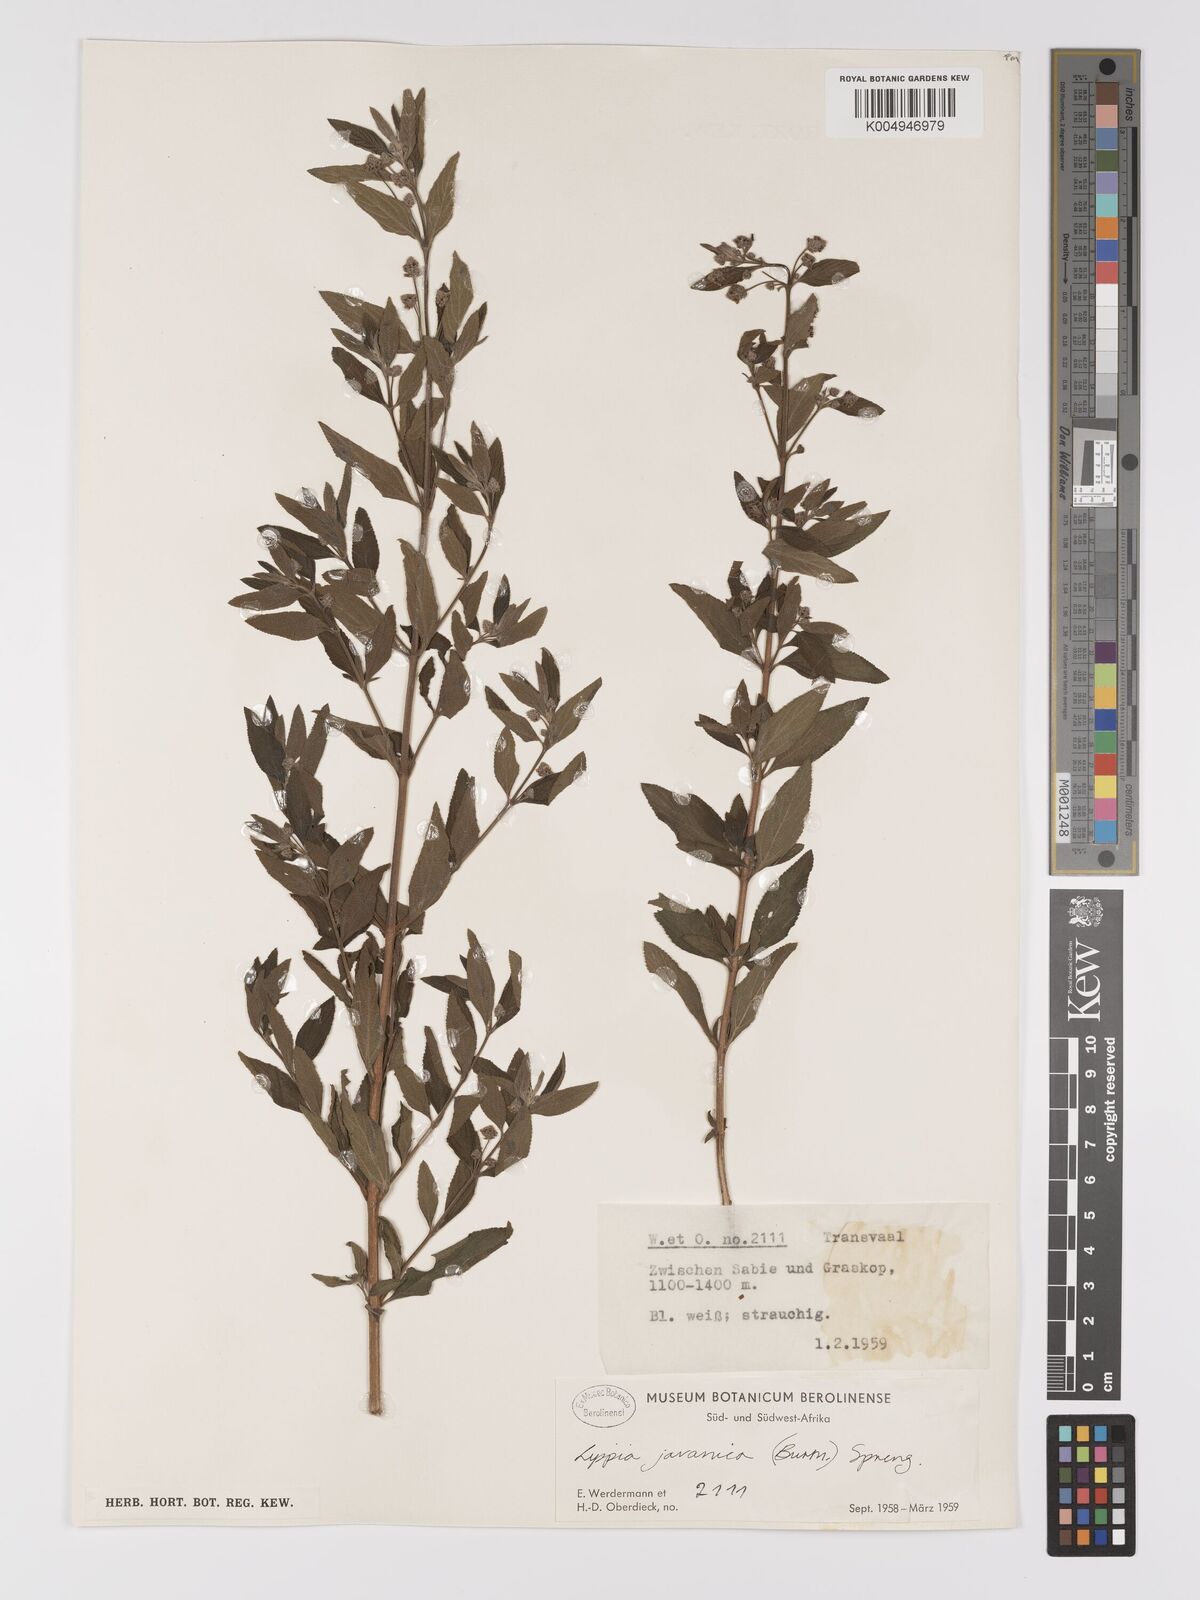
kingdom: Plantae
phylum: Tracheophyta
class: Magnoliopsida
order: Lamiales
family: Verbenaceae
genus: Lippia
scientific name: Lippia javanica
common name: Lemonbush
